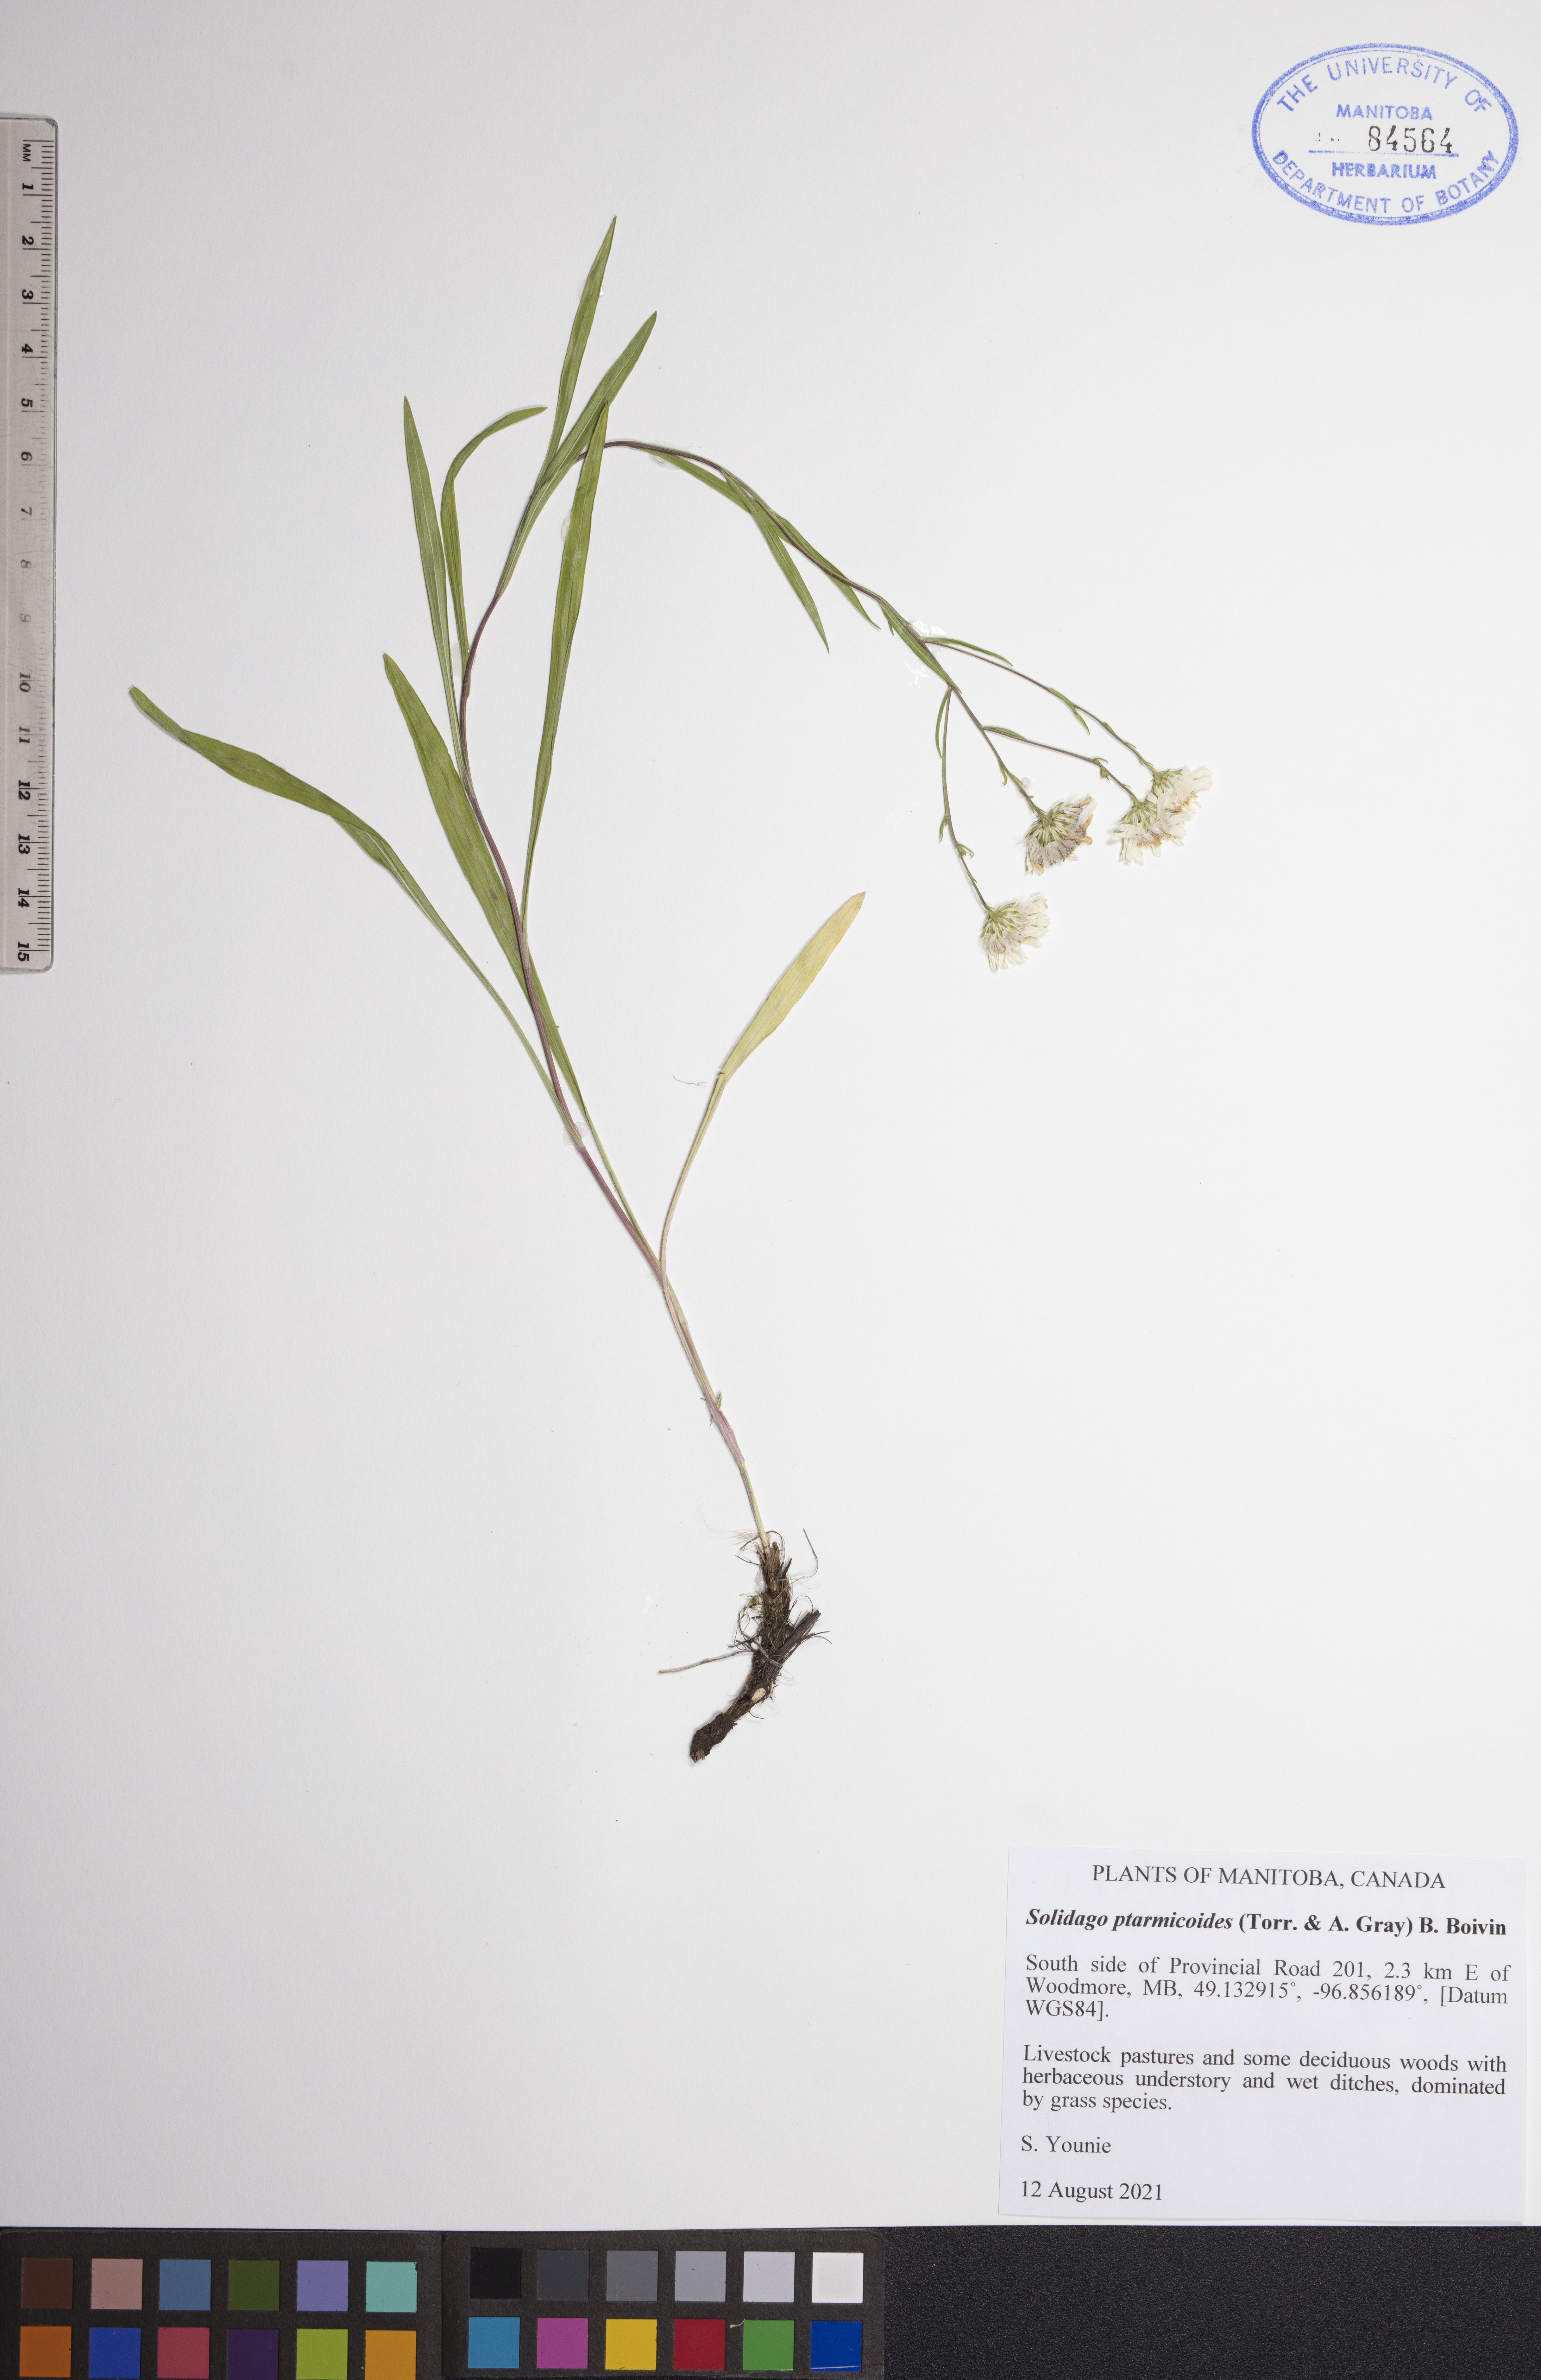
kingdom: Plantae
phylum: Tracheophyta
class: Magnoliopsida
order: Asterales
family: Asteraceae
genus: Solidago
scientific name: Solidago ptarmicoides
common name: White flat-top goldenrod
